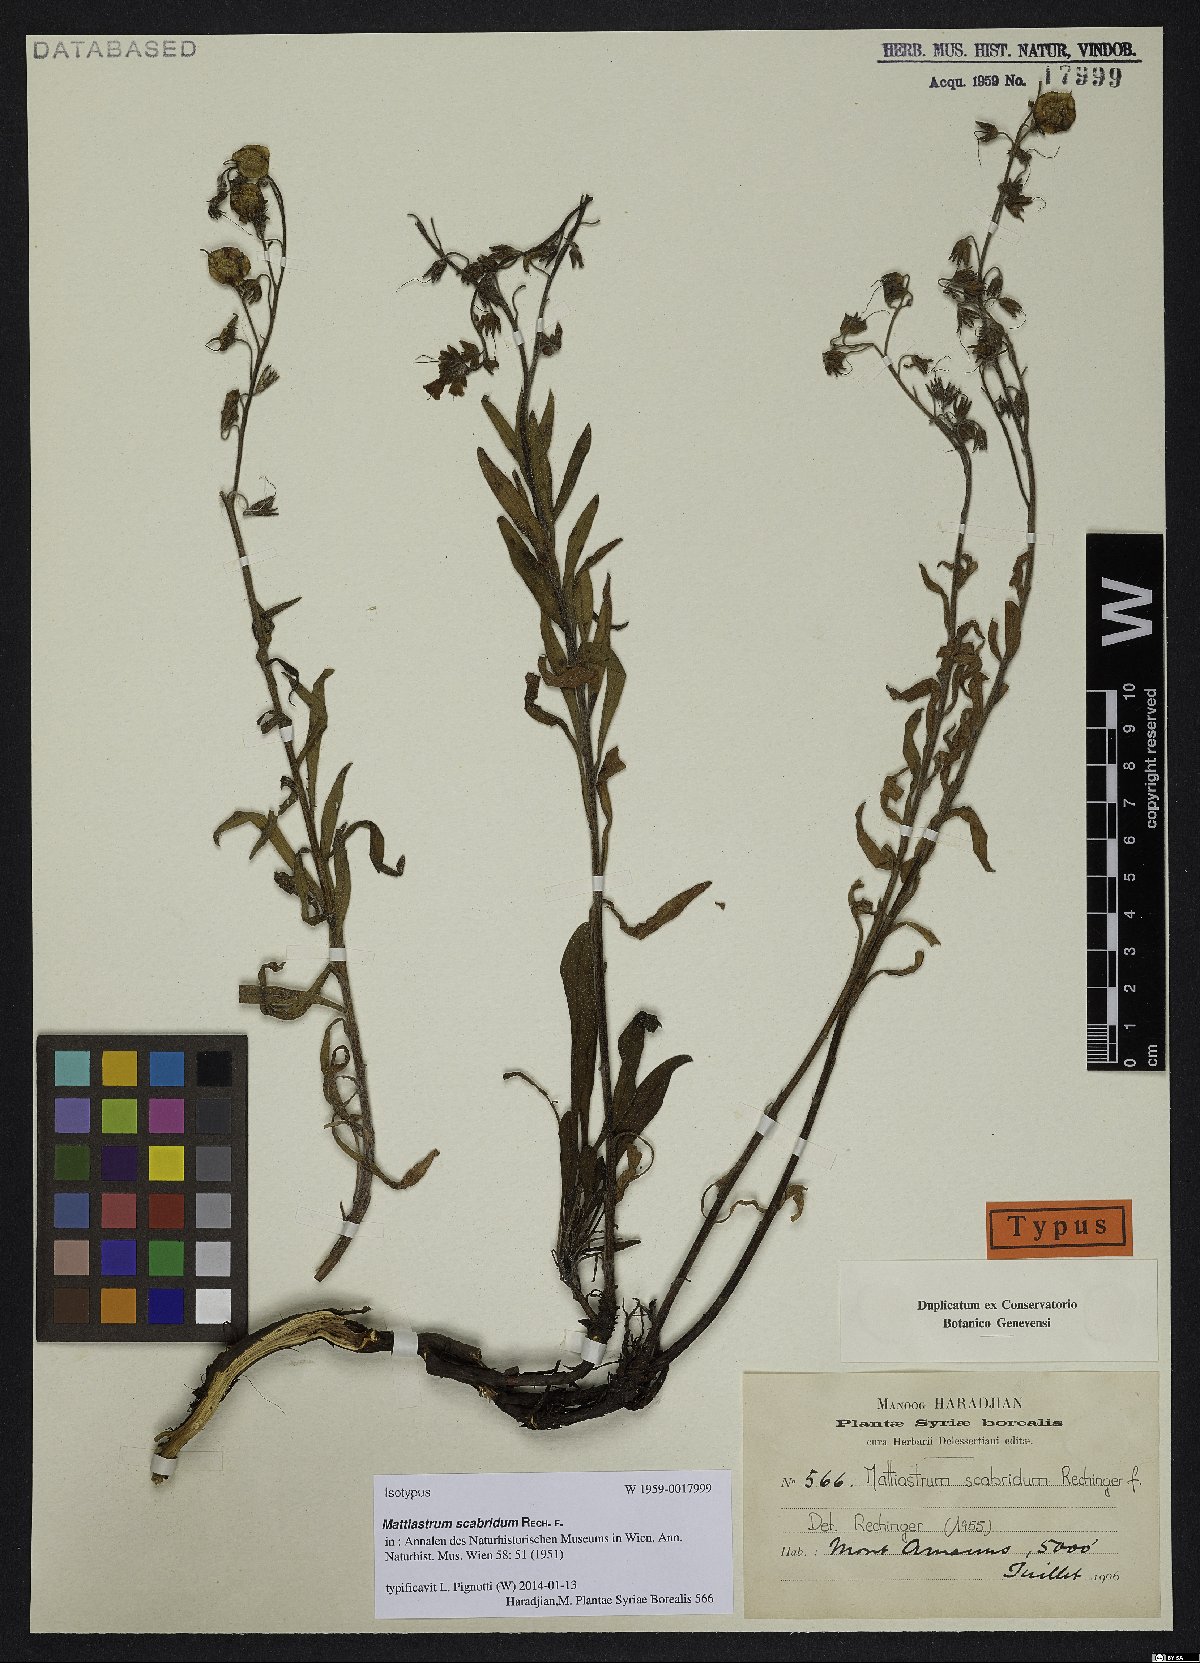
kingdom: Plantae
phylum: Tracheophyta
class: Magnoliopsida
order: Boraginales
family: Boraginaceae
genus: Paracaryum
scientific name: Paracaryum racemosum
